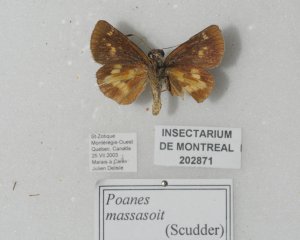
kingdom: Animalia
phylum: Arthropoda
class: Insecta
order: Lepidoptera
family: Hesperiidae
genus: Poanes
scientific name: Poanes massasoit
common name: Mulberry Wing
